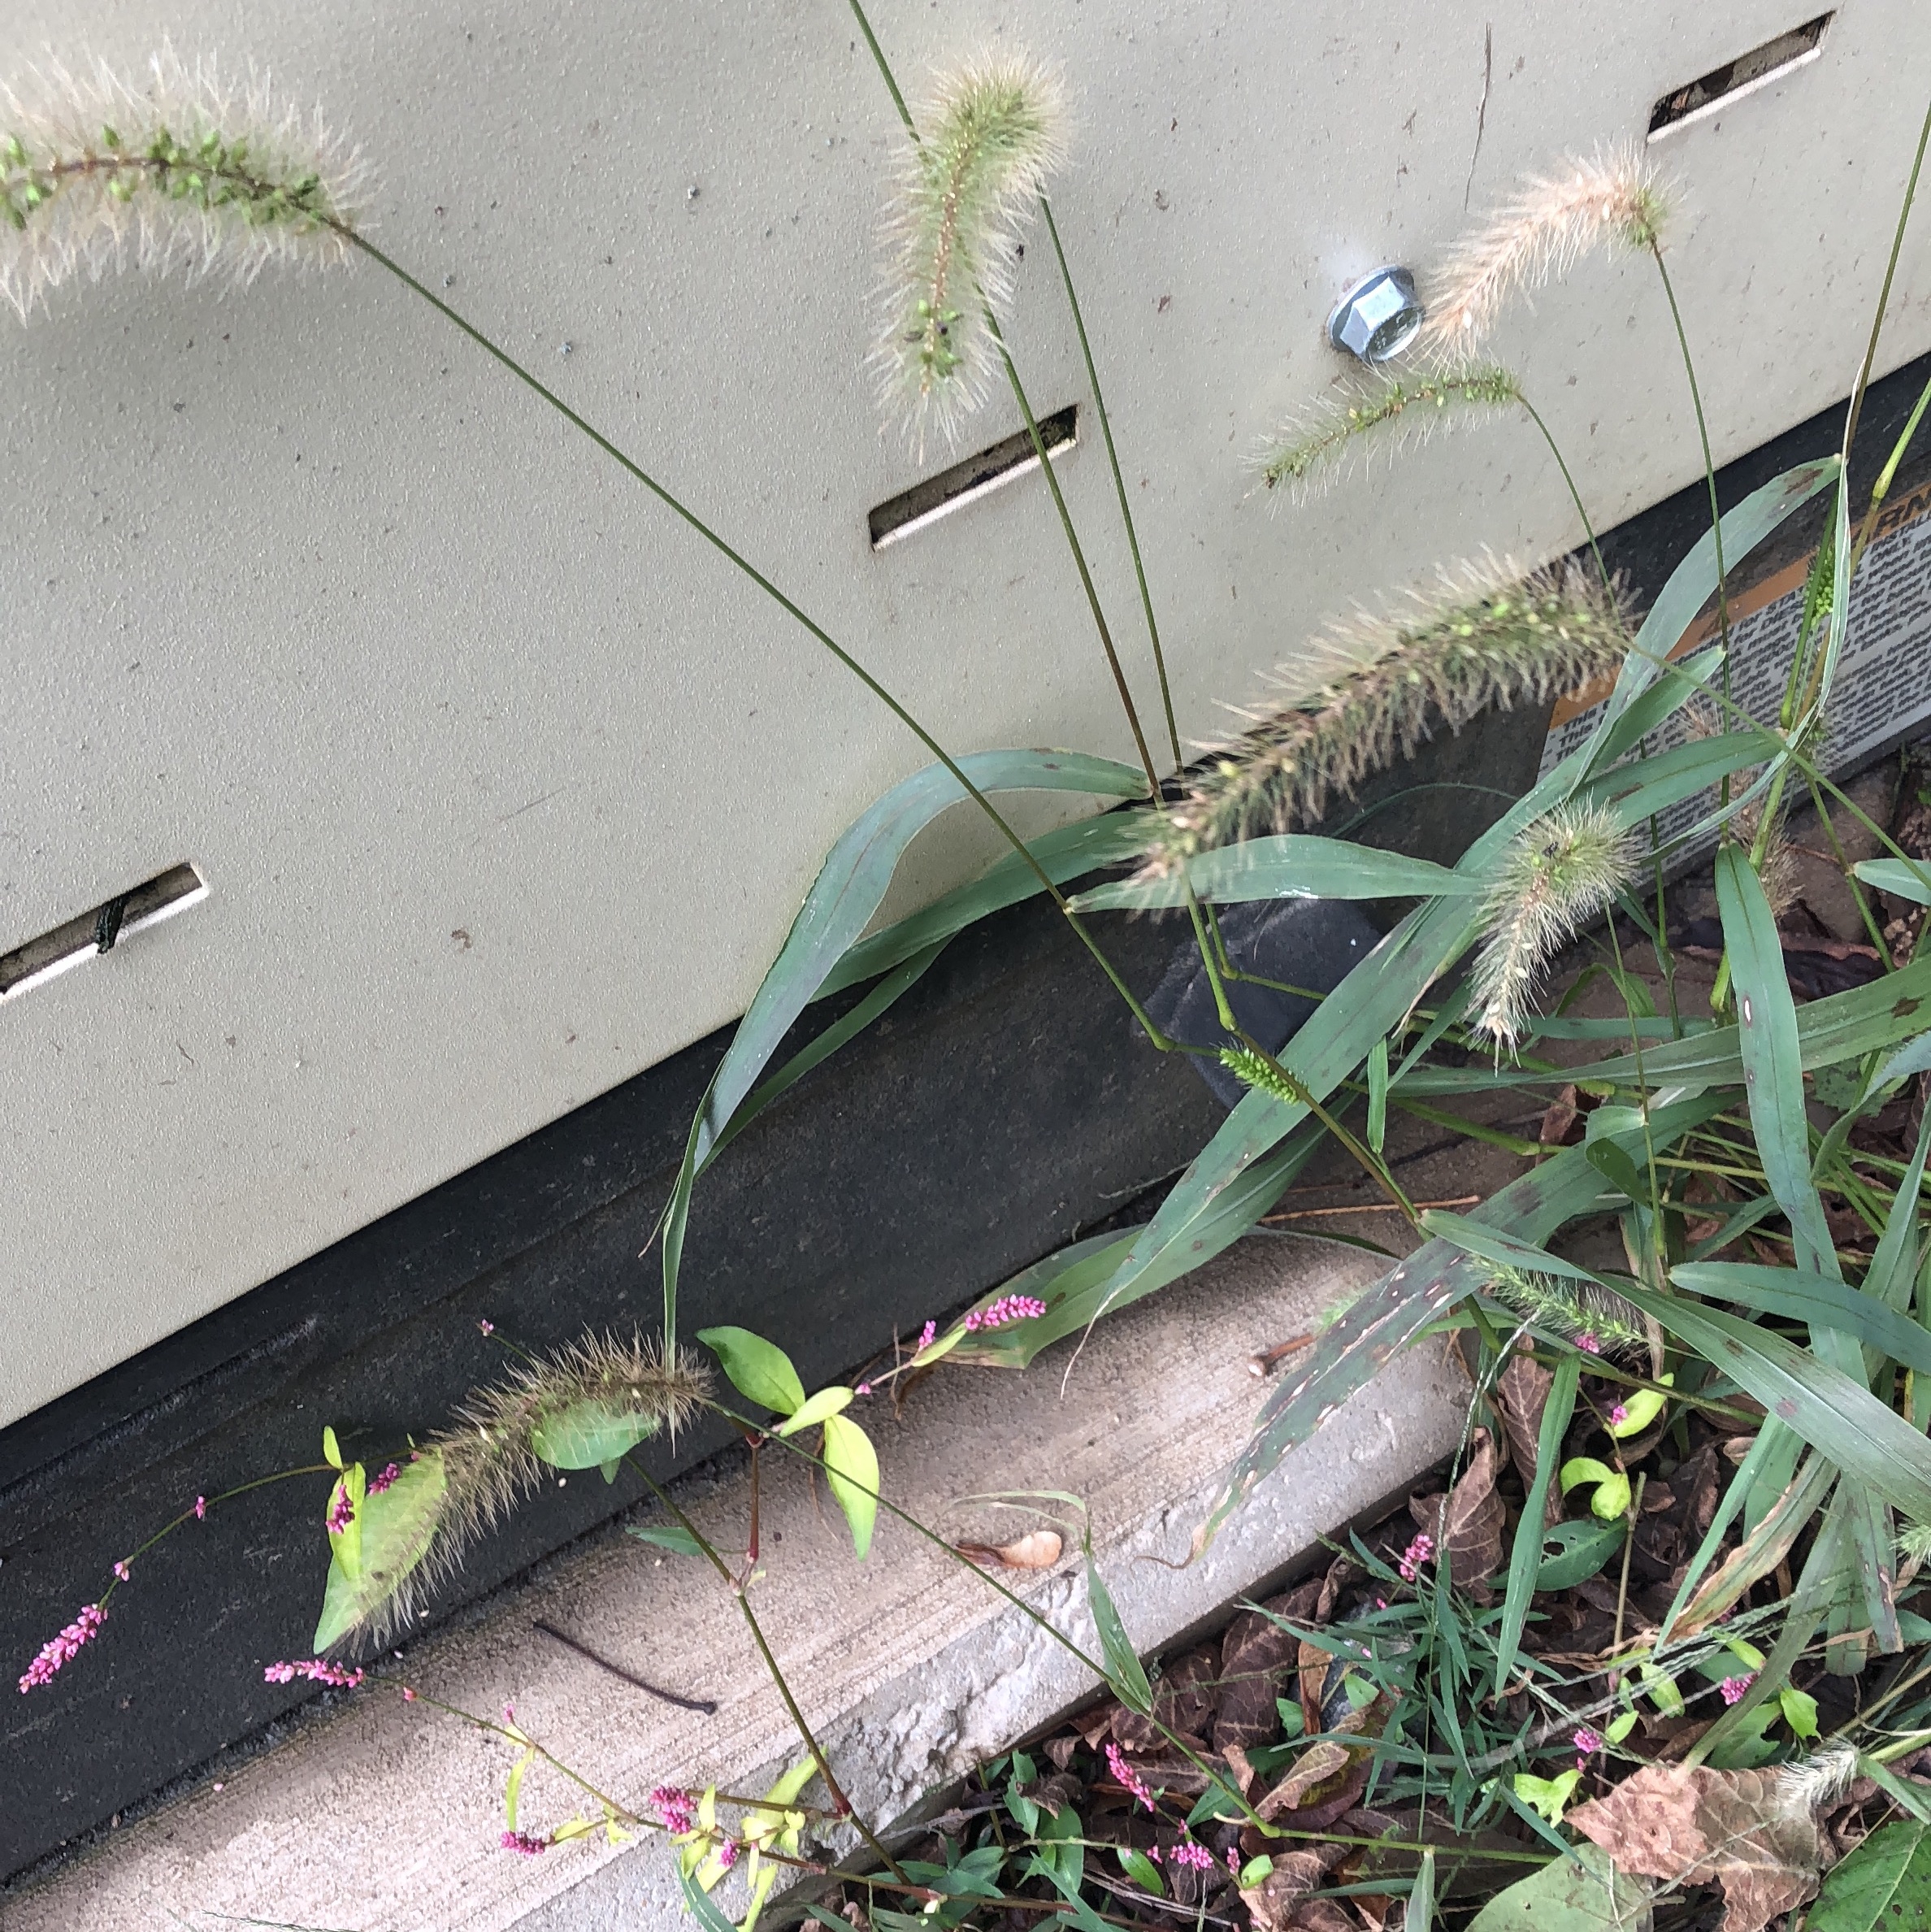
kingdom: Plantae
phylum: Tracheophyta
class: Liliopsida
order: Poales
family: Poaceae
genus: Setaria
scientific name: Setaria faberi
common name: Giant Foxtail
